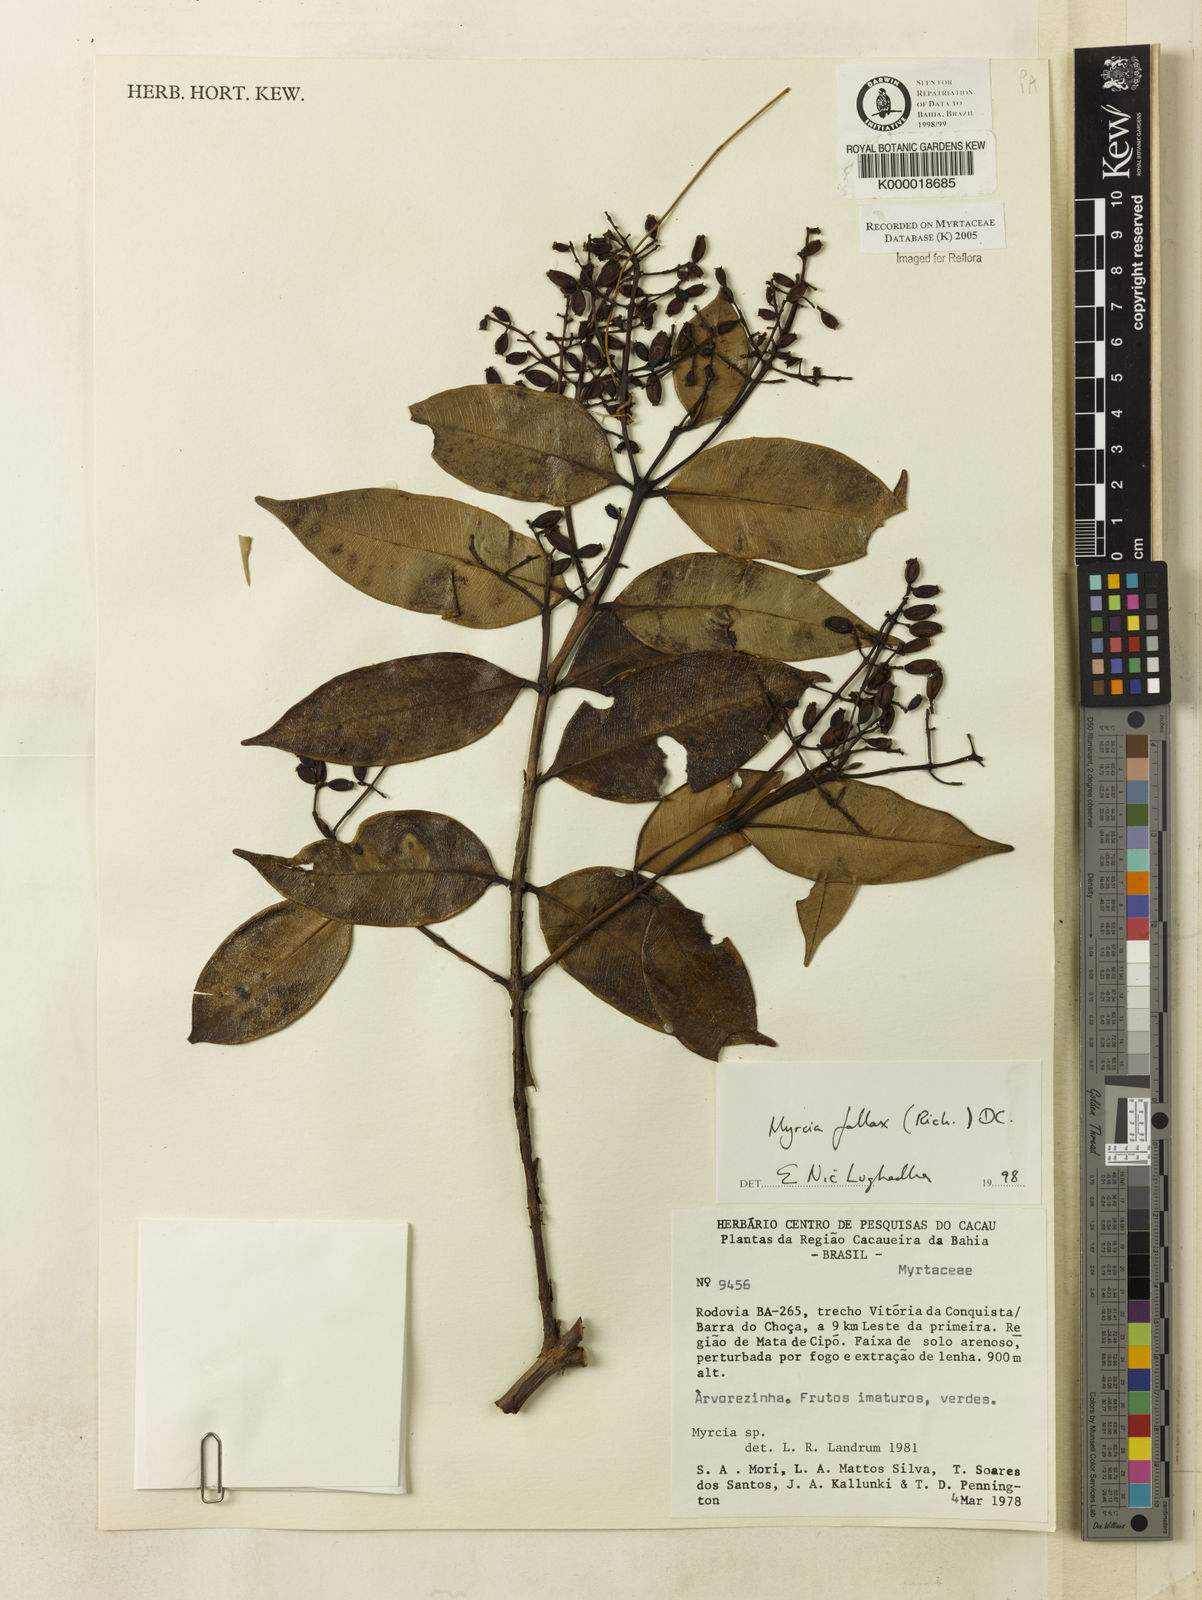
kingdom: Plantae
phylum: Tracheophyta
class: Magnoliopsida
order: Myrtales
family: Myrtaceae
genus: Myrcia
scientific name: Myrcia splendens
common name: Surinam cherry
